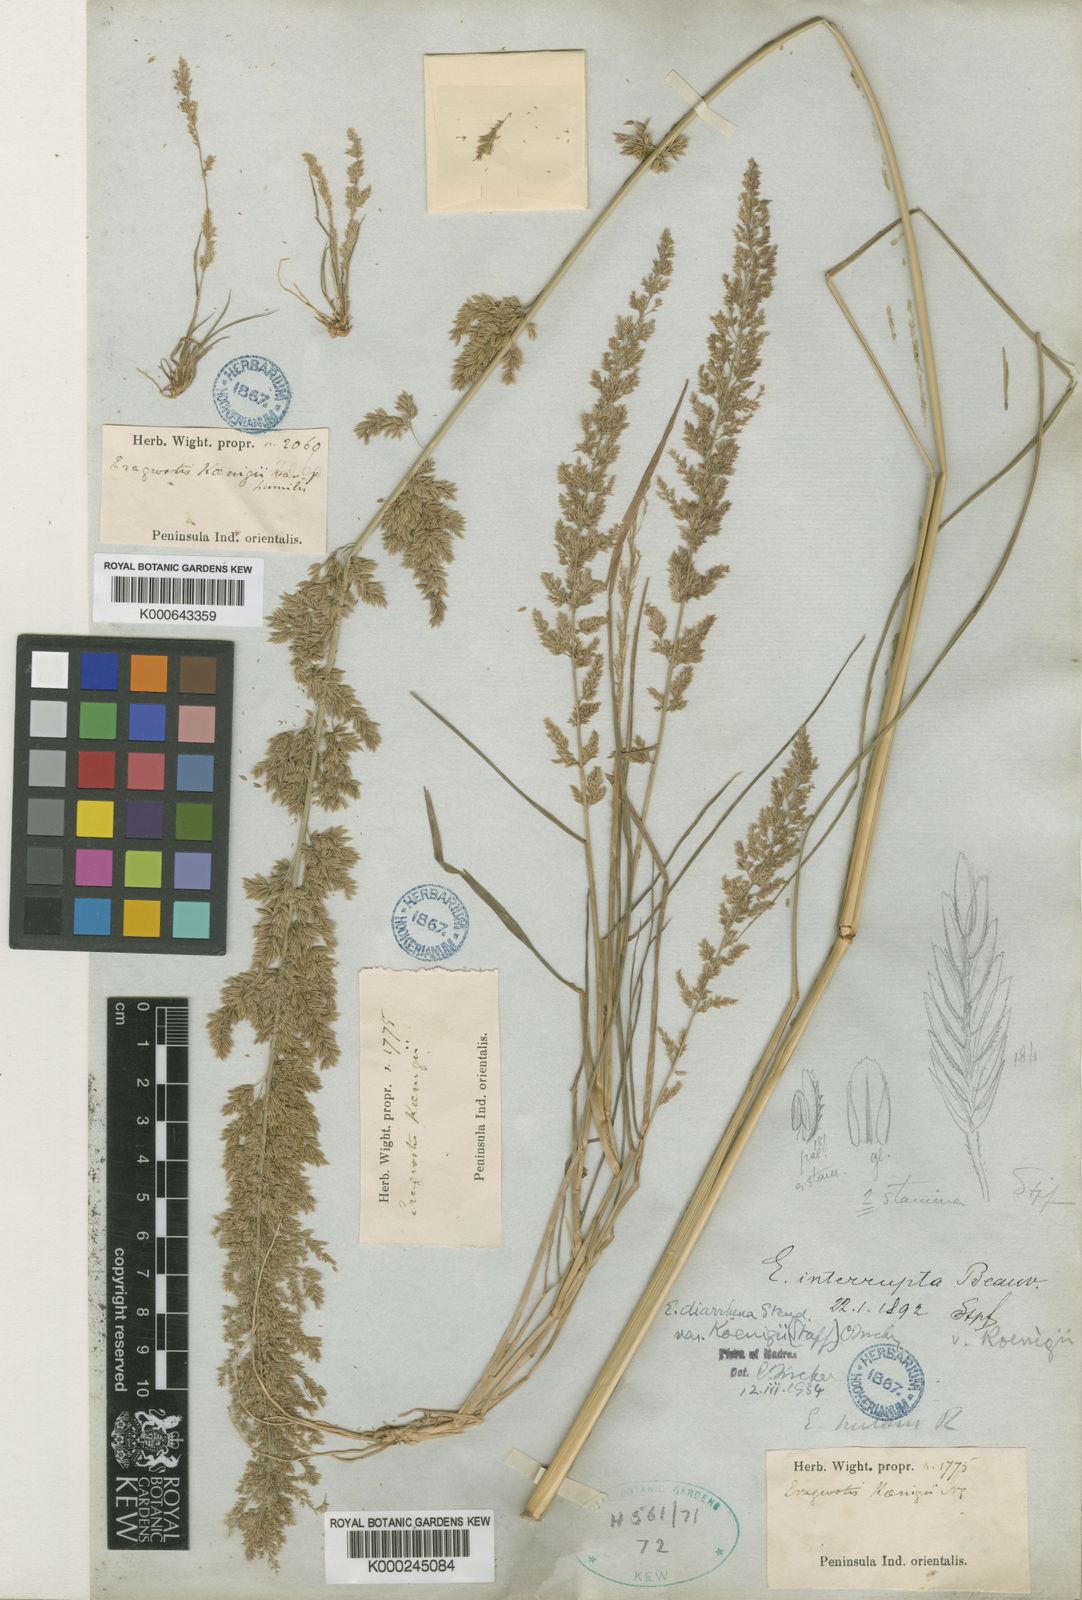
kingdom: Plantae
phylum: Tracheophyta
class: Liliopsida
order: Poales
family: Poaceae
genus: Eragrostis
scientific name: Eragrostis japonica
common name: Pond lovegrass
